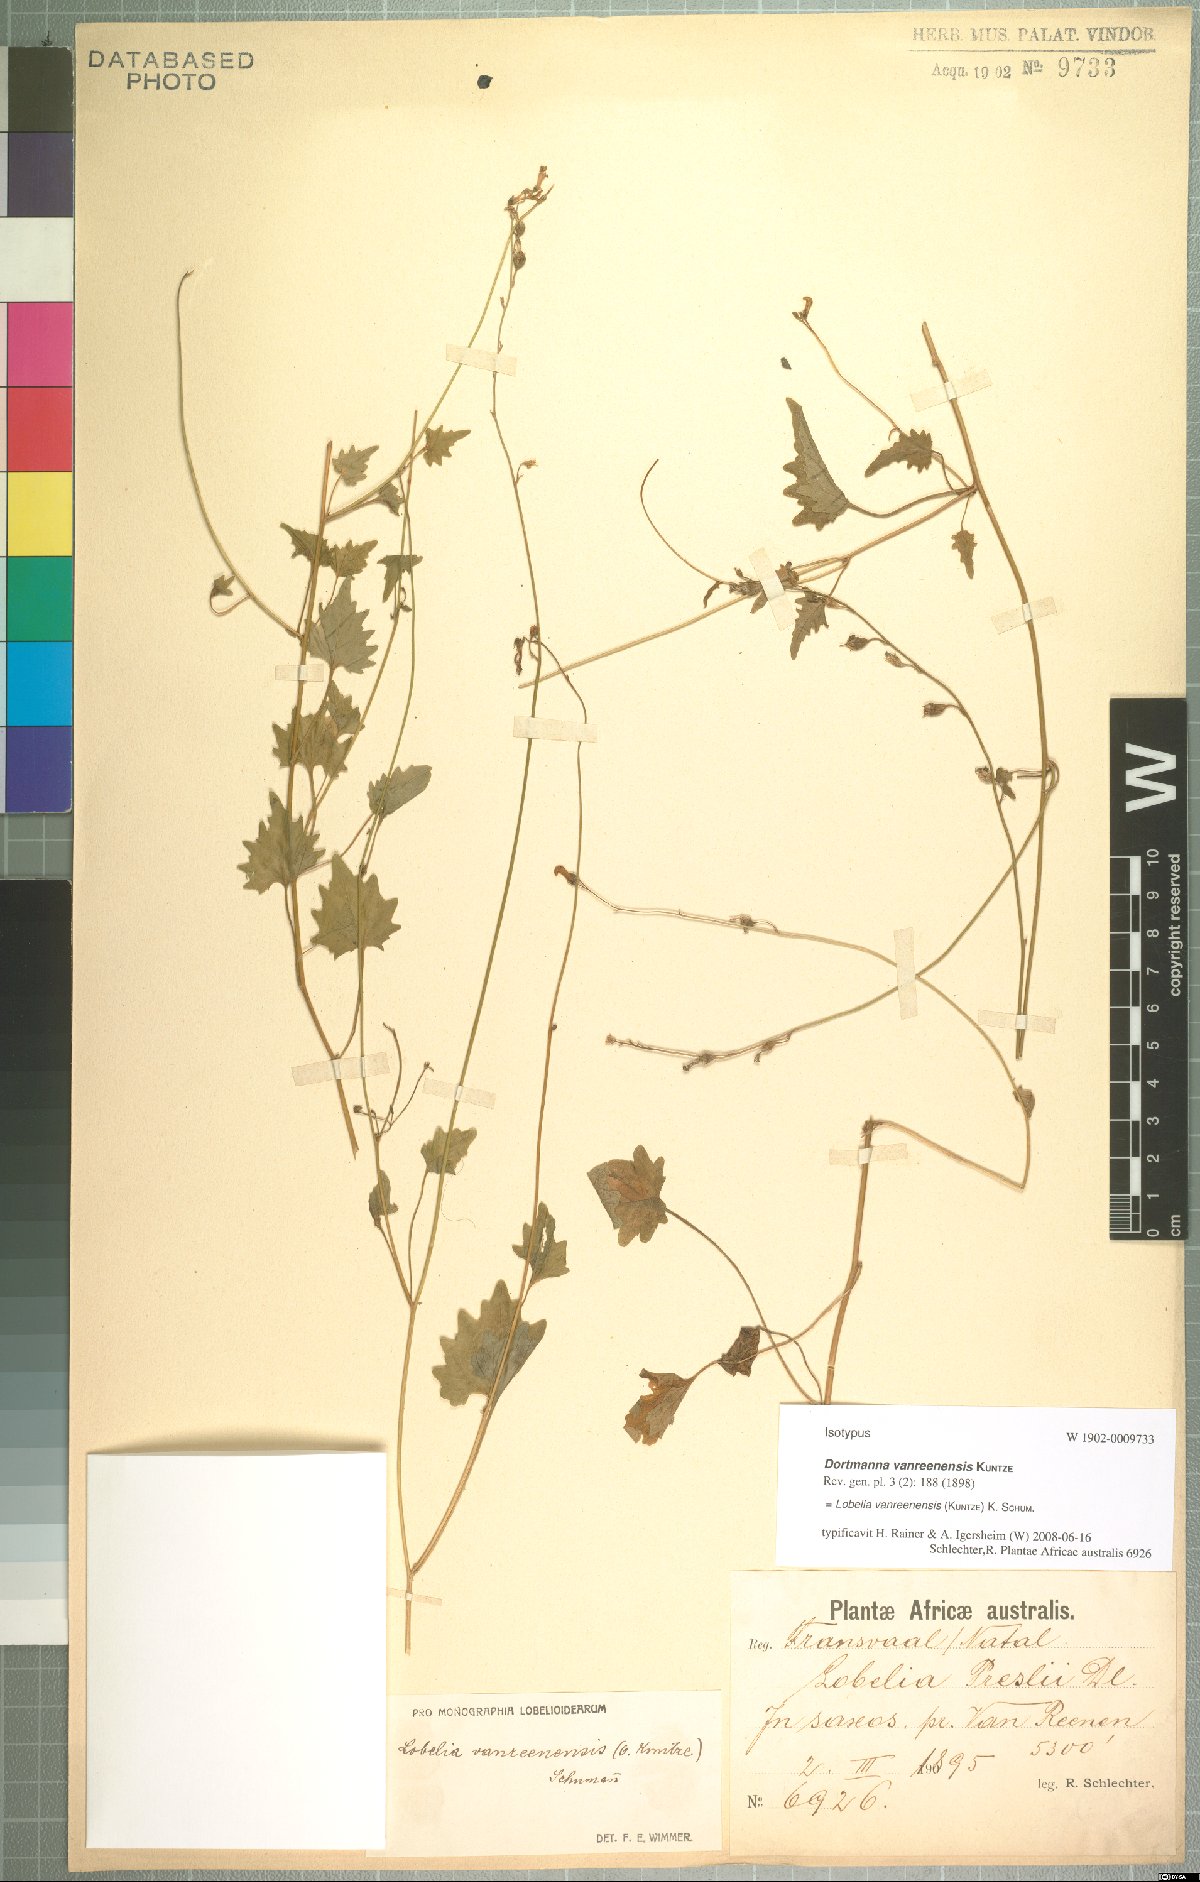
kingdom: Plantae
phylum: Tracheophyta
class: Magnoliopsida
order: Asterales
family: Campanulaceae
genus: Lobelia
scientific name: Lobelia vanreenensis
